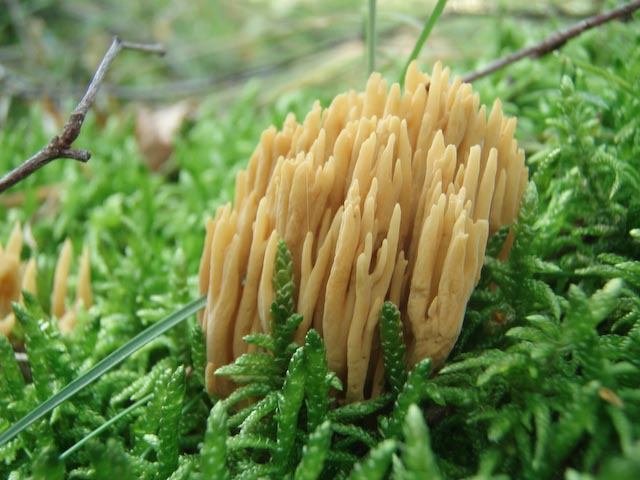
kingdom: Fungi
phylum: Basidiomycota
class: Agaricomycetes
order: Gomphales
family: Gomphaceae
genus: Phaeoclavulina
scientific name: Phaeoclavulina eumorpha
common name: gran-koralsvamp
